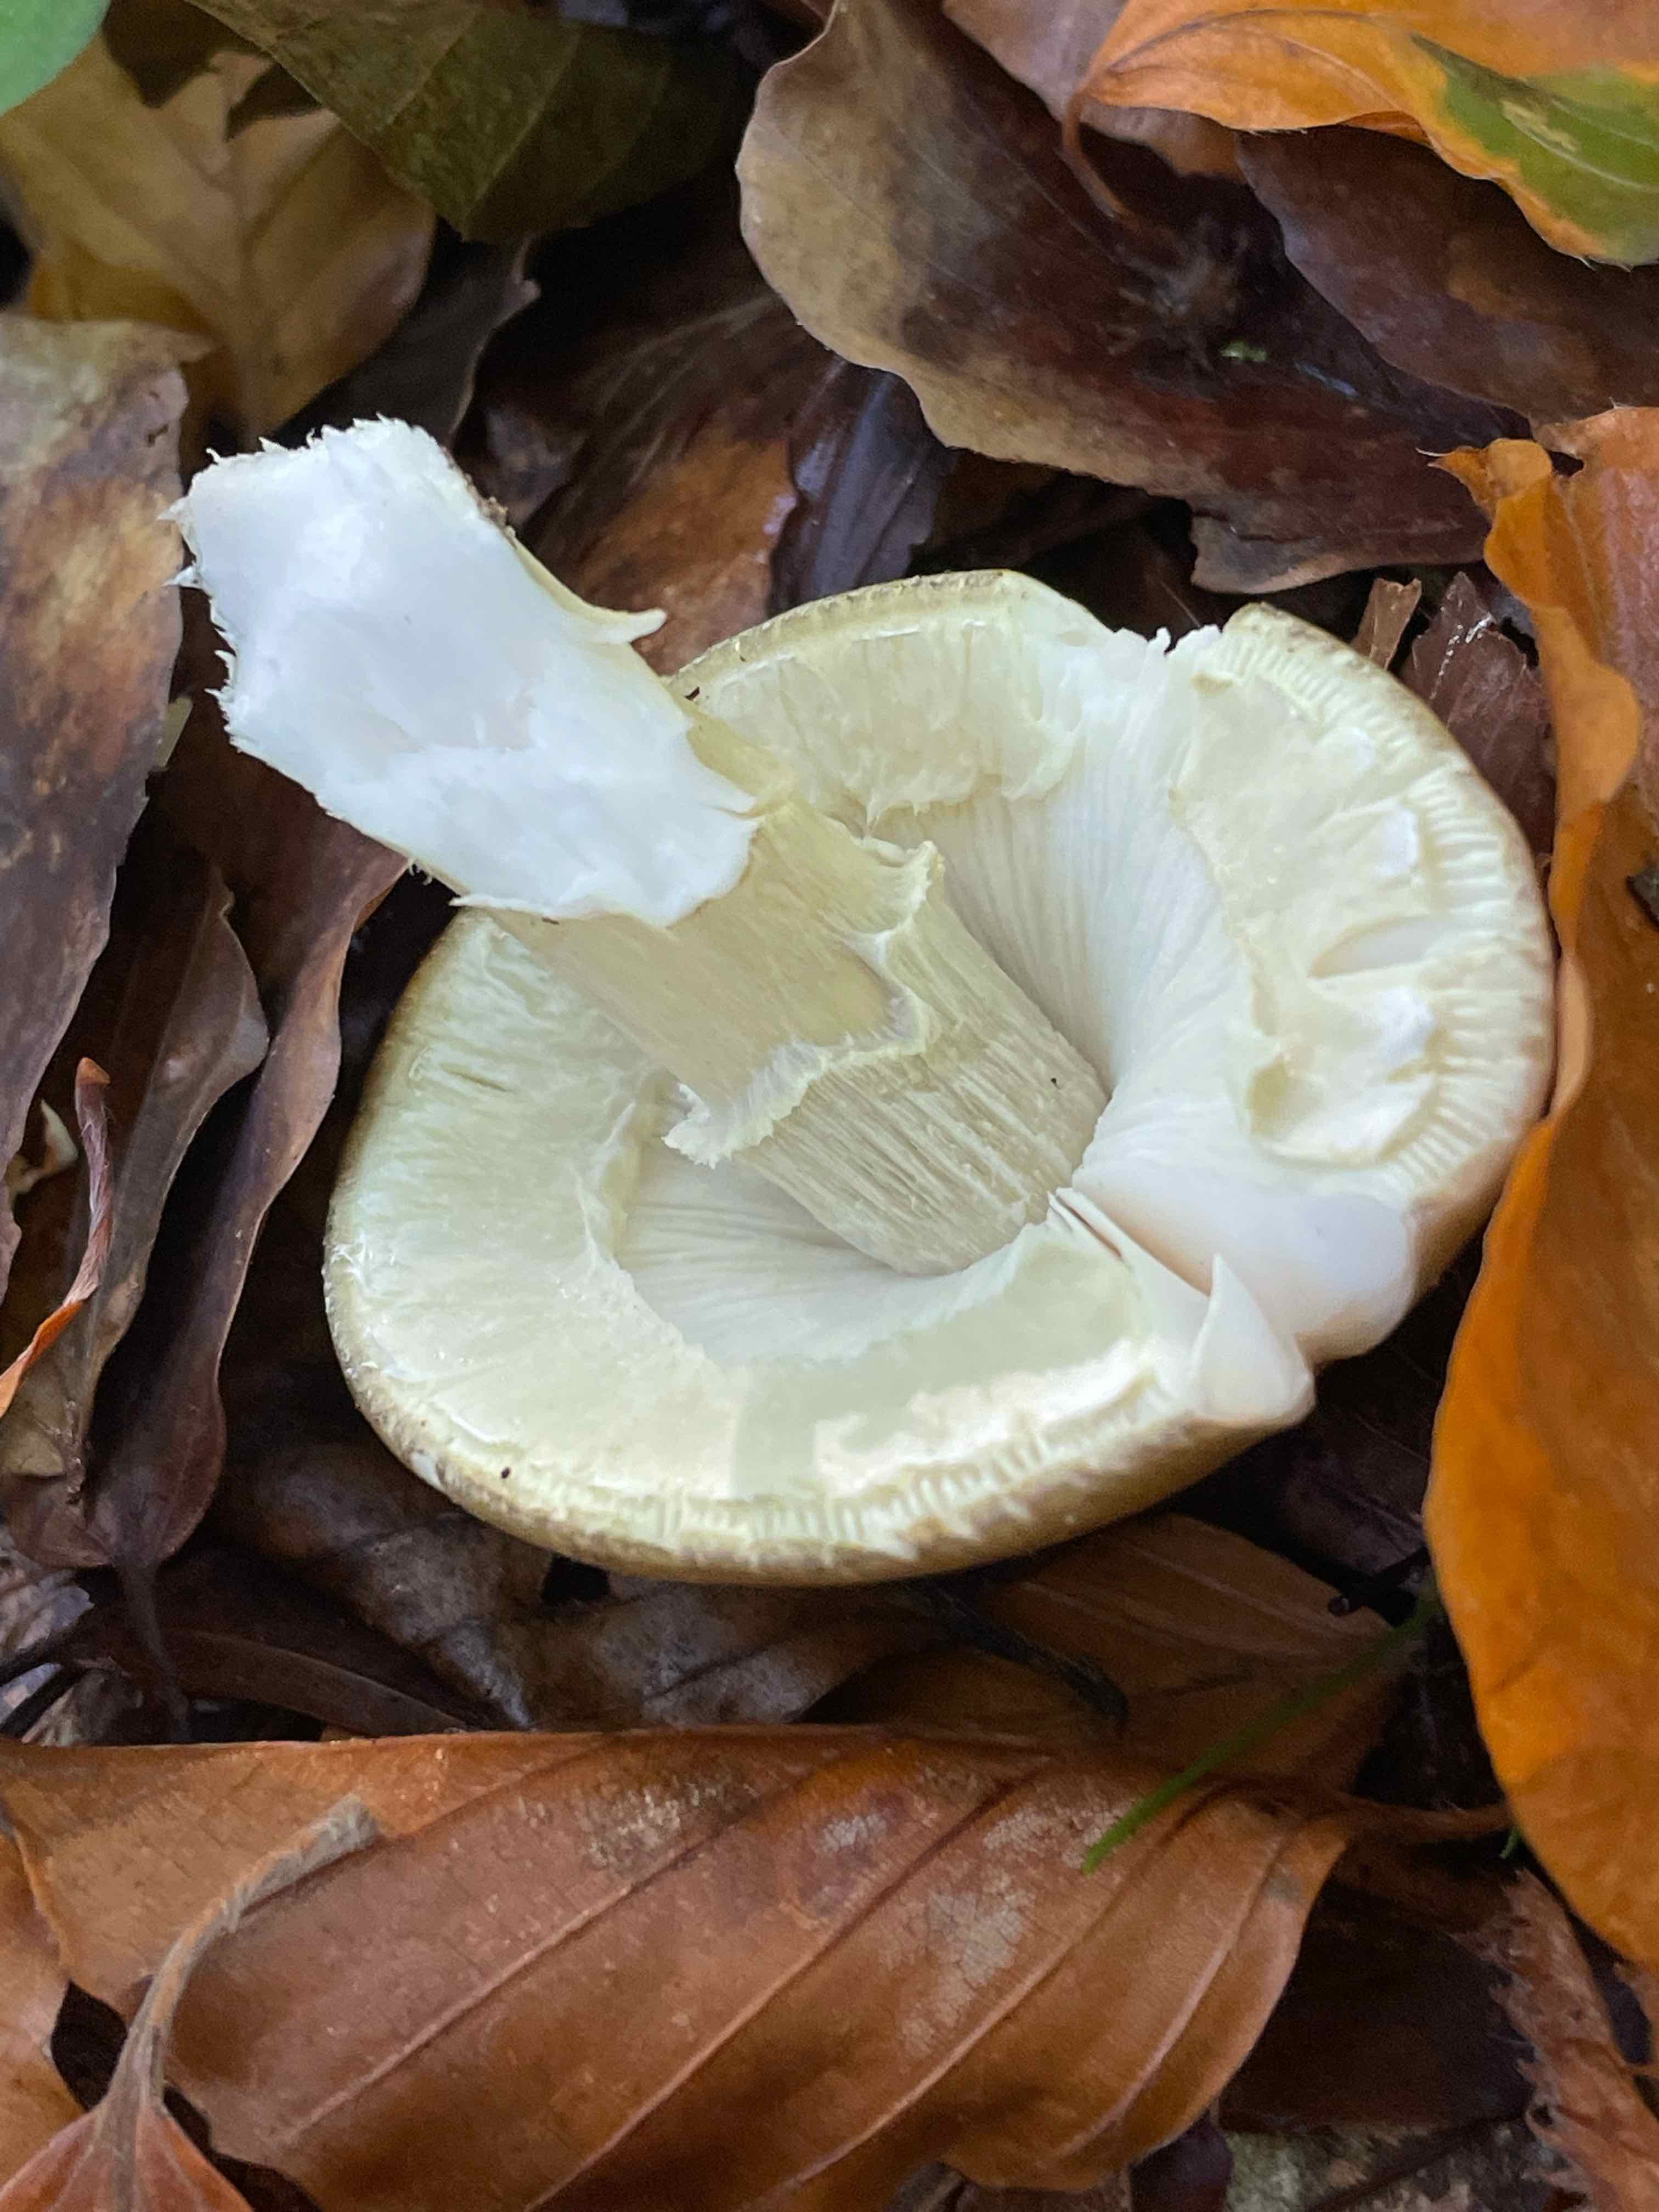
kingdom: Fungi
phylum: Basidiomycota
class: Agaricomycetes
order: Agaricales
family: Amanitaceae
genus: Amanita
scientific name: Amanita phalloides
